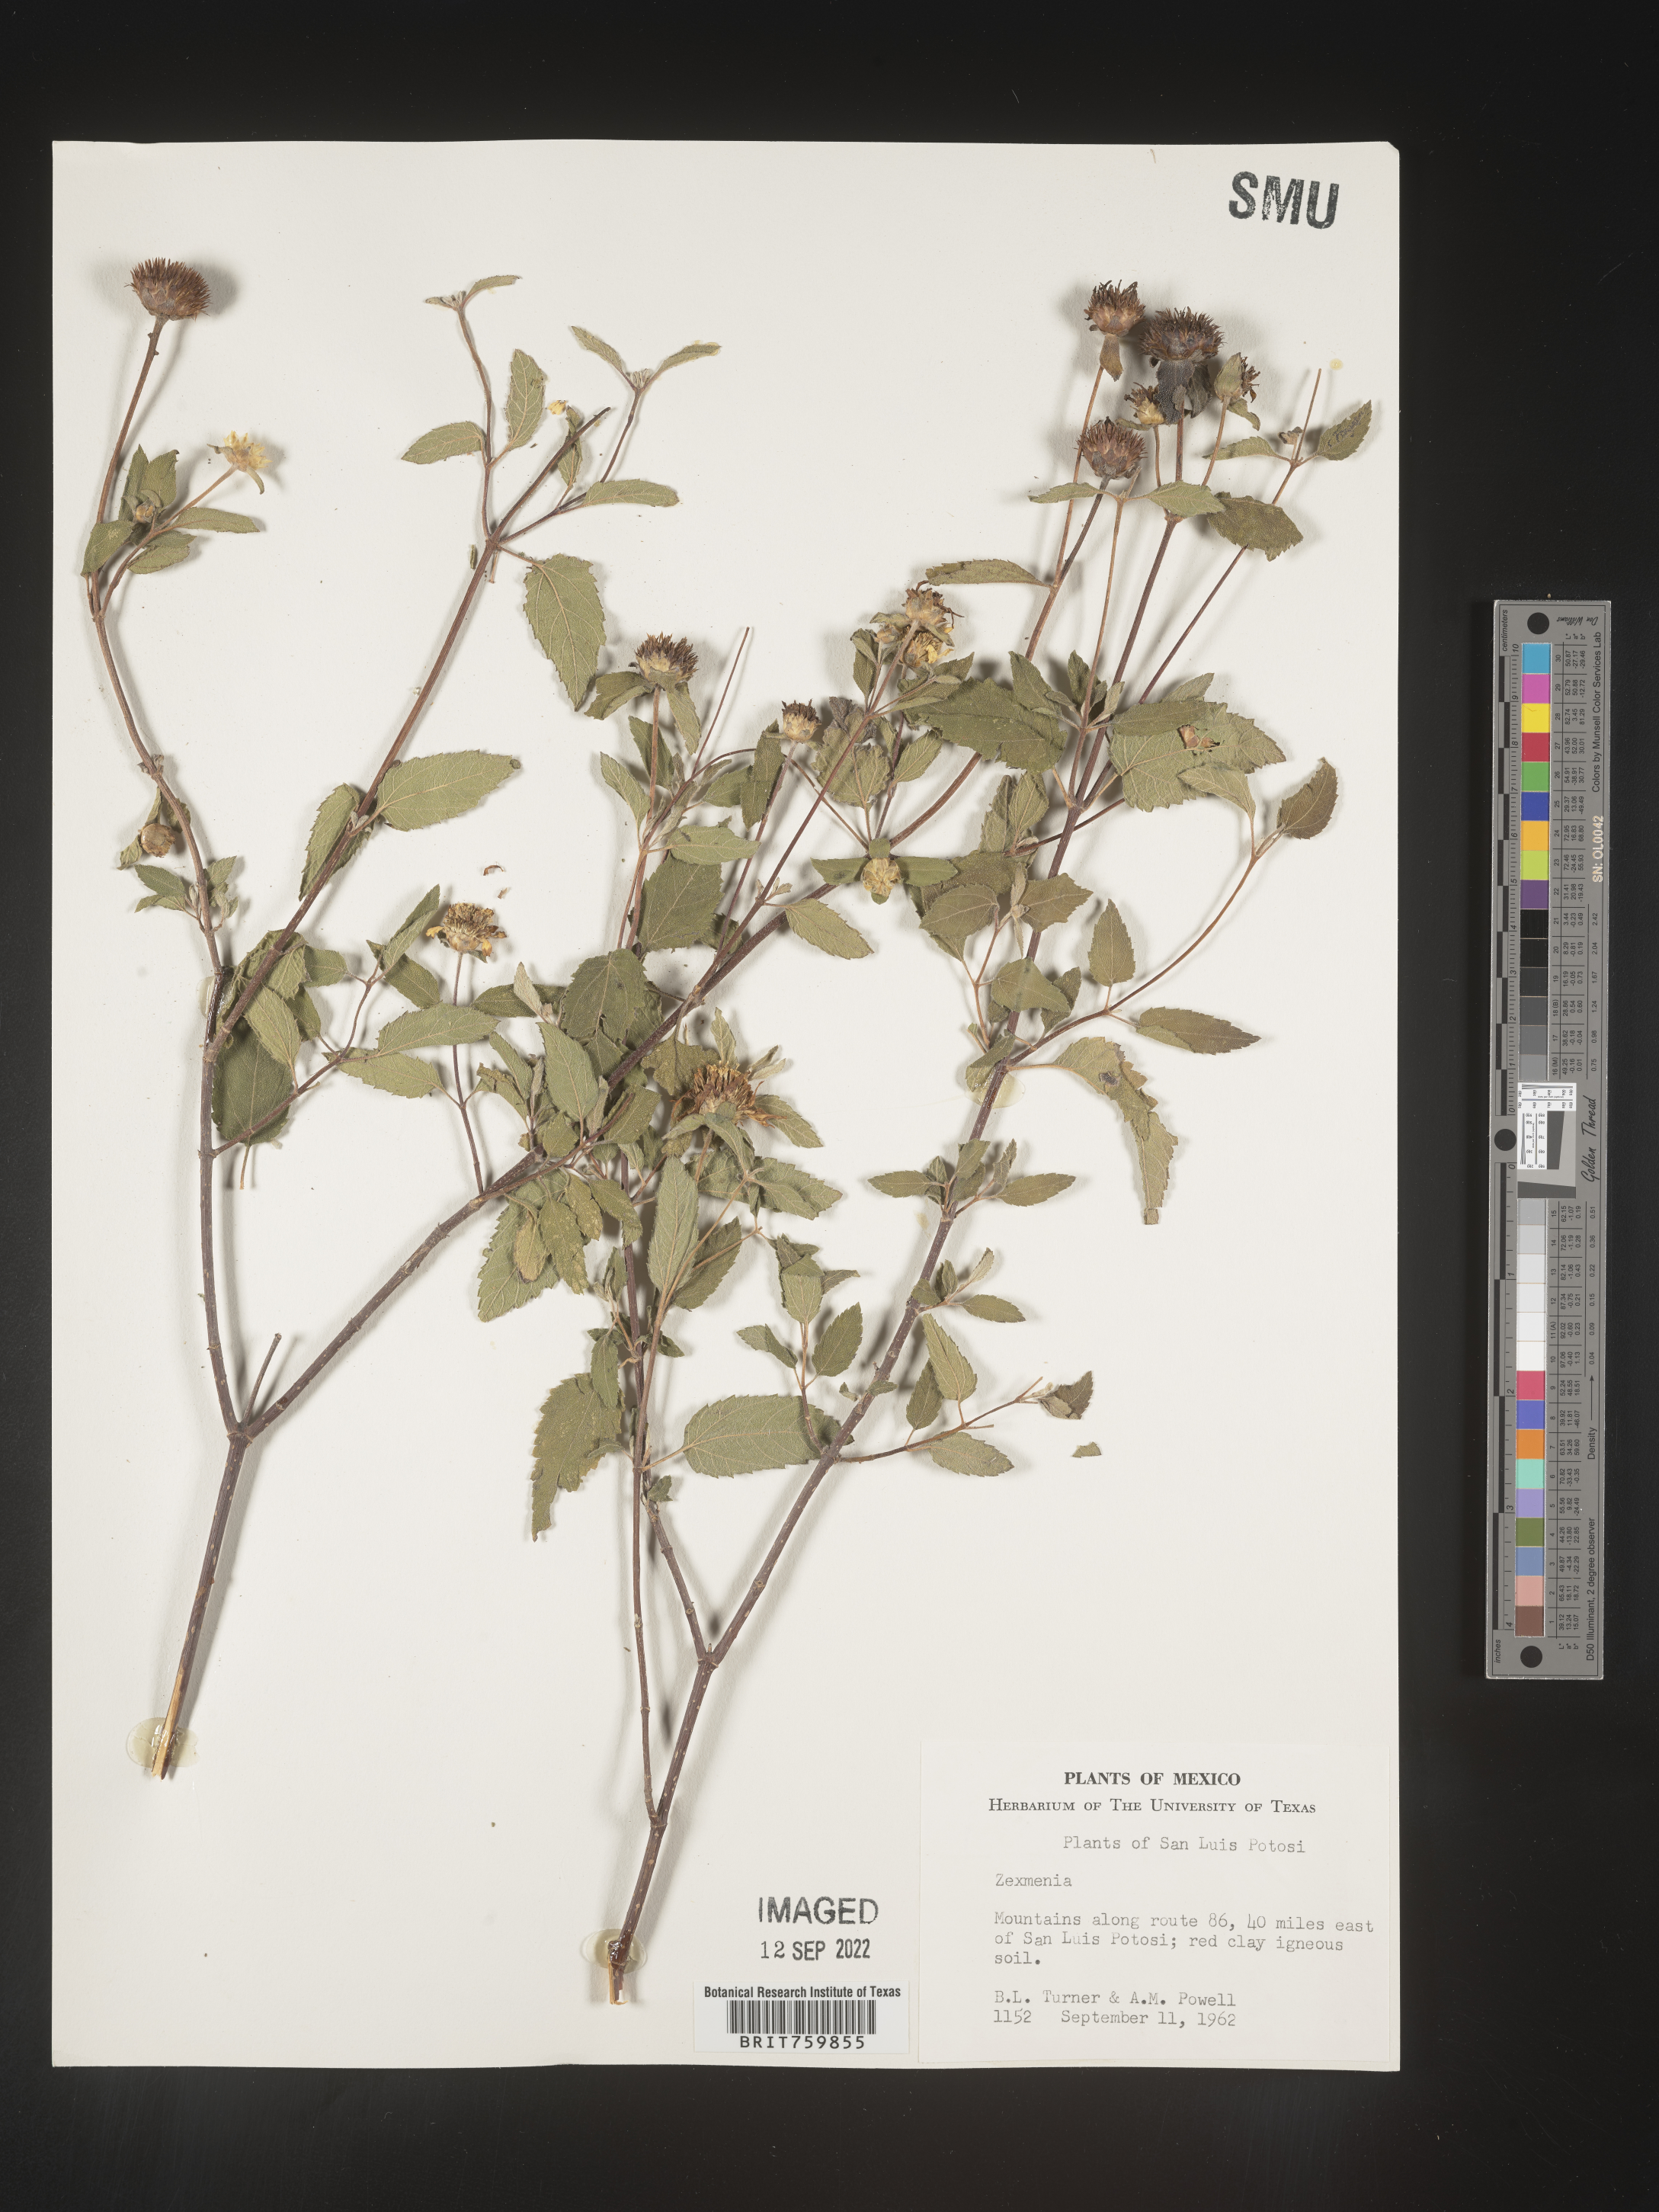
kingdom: Plantae
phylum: Tracheophyta
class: Magnoliopsida
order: Asterales
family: Asteraceae
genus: Zexmenia
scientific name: Zexmenia
